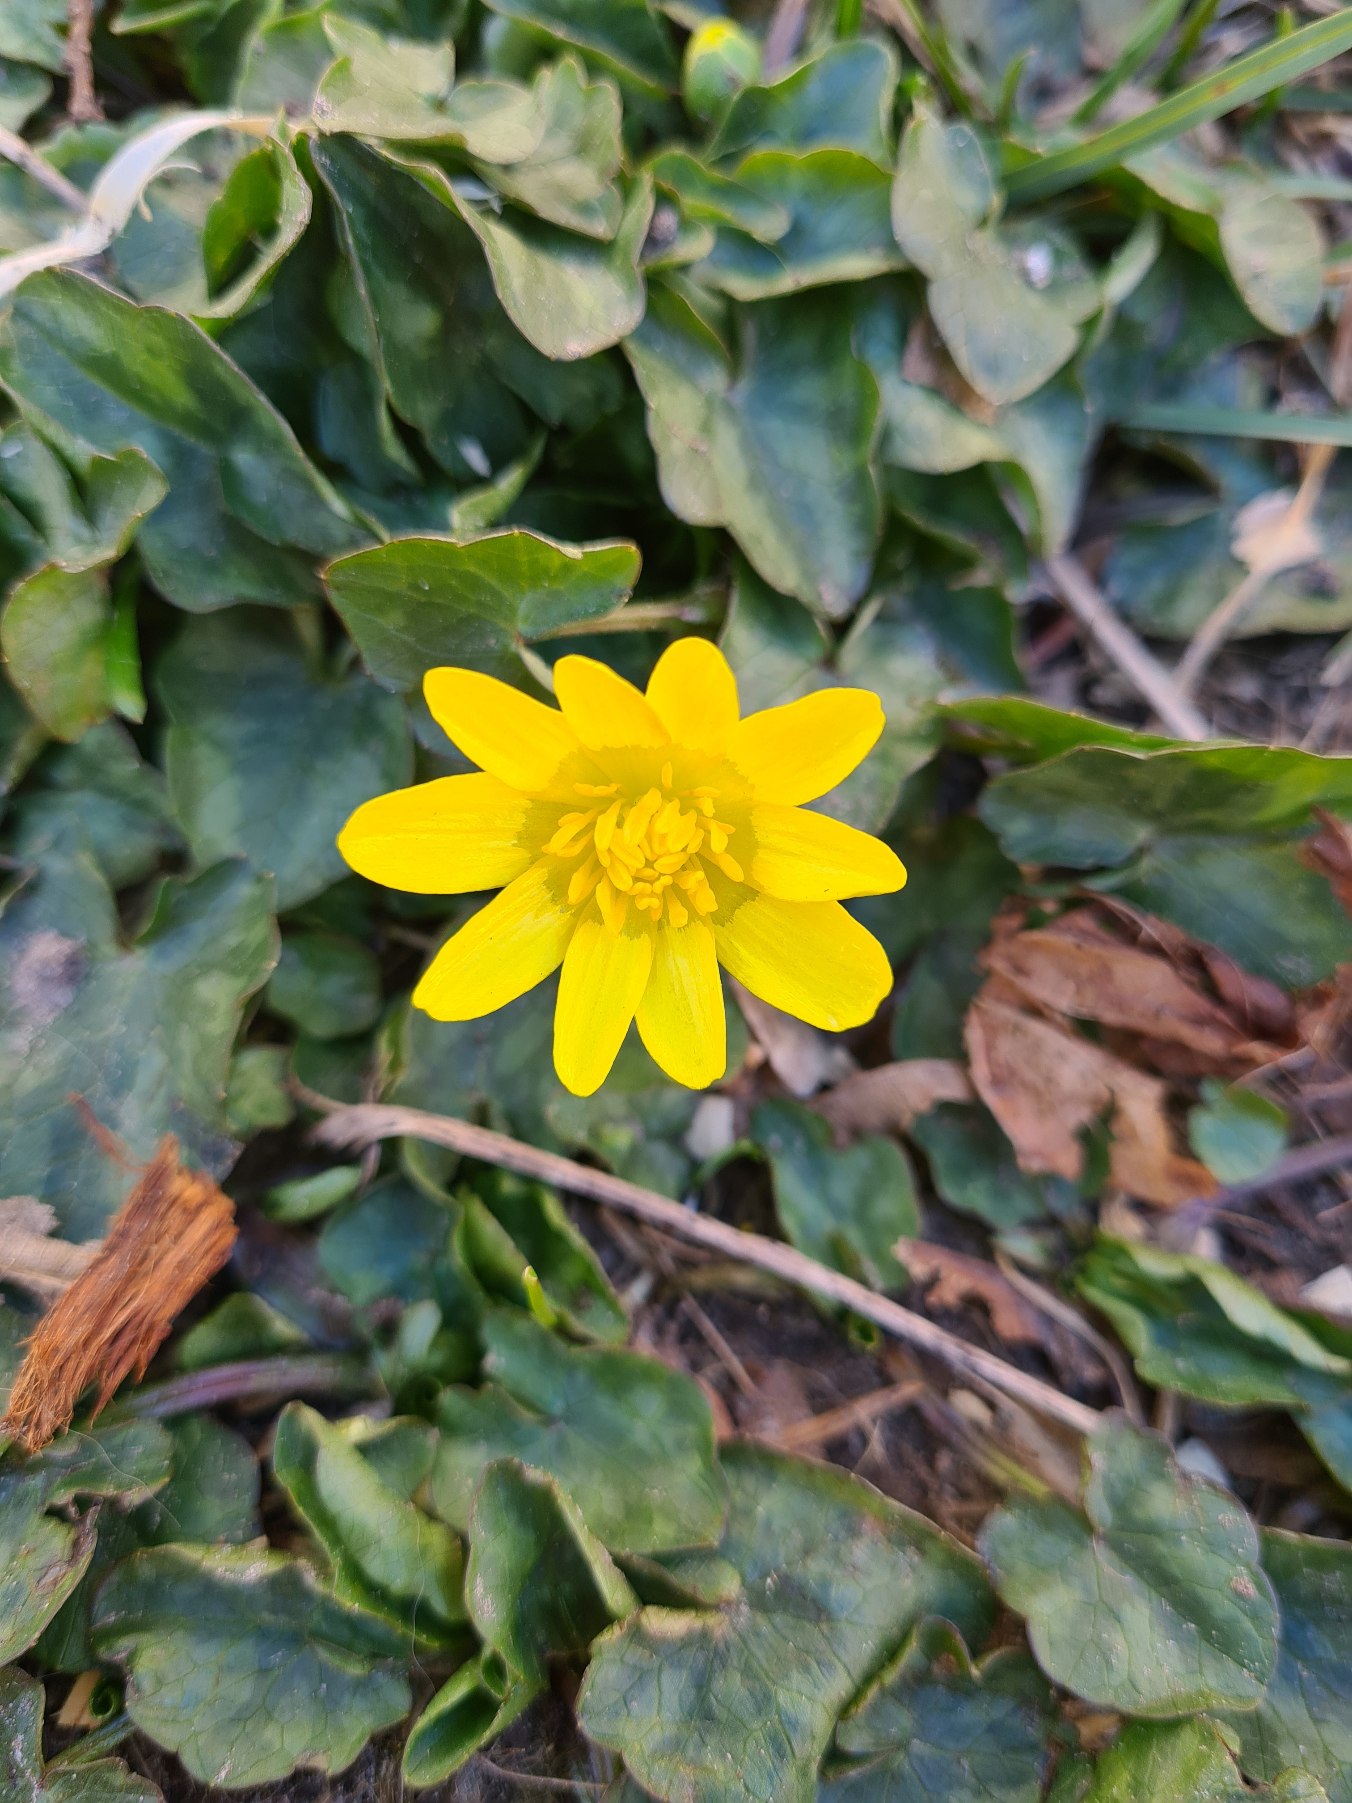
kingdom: Plantae
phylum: Tracheophyta
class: Magnoliopsida
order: Ranunculales
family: Ranunculaceae
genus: Ficaria
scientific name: Ficaria verna
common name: Vorterod
